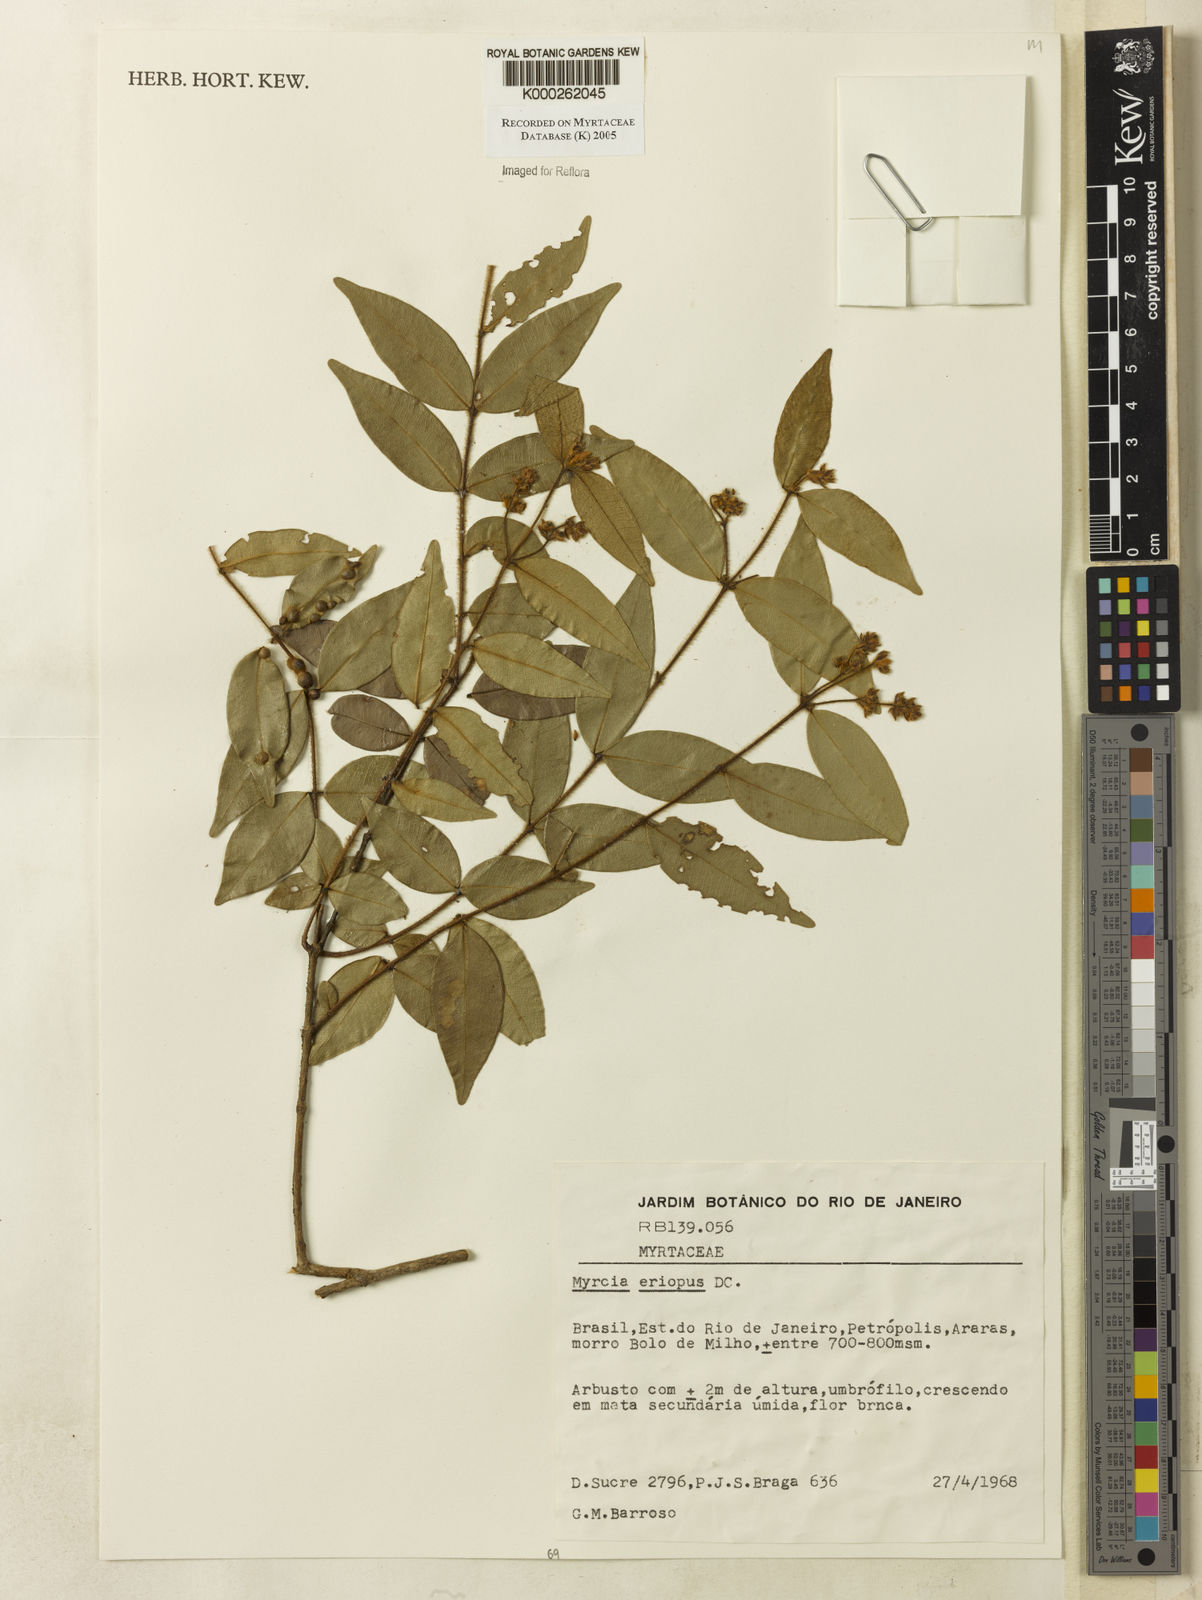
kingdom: Plantae
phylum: Tracheophyta
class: Magnoliopsida
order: Myrtales
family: Myrtaceae
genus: Myrcia
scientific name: Myrcia eriopus
